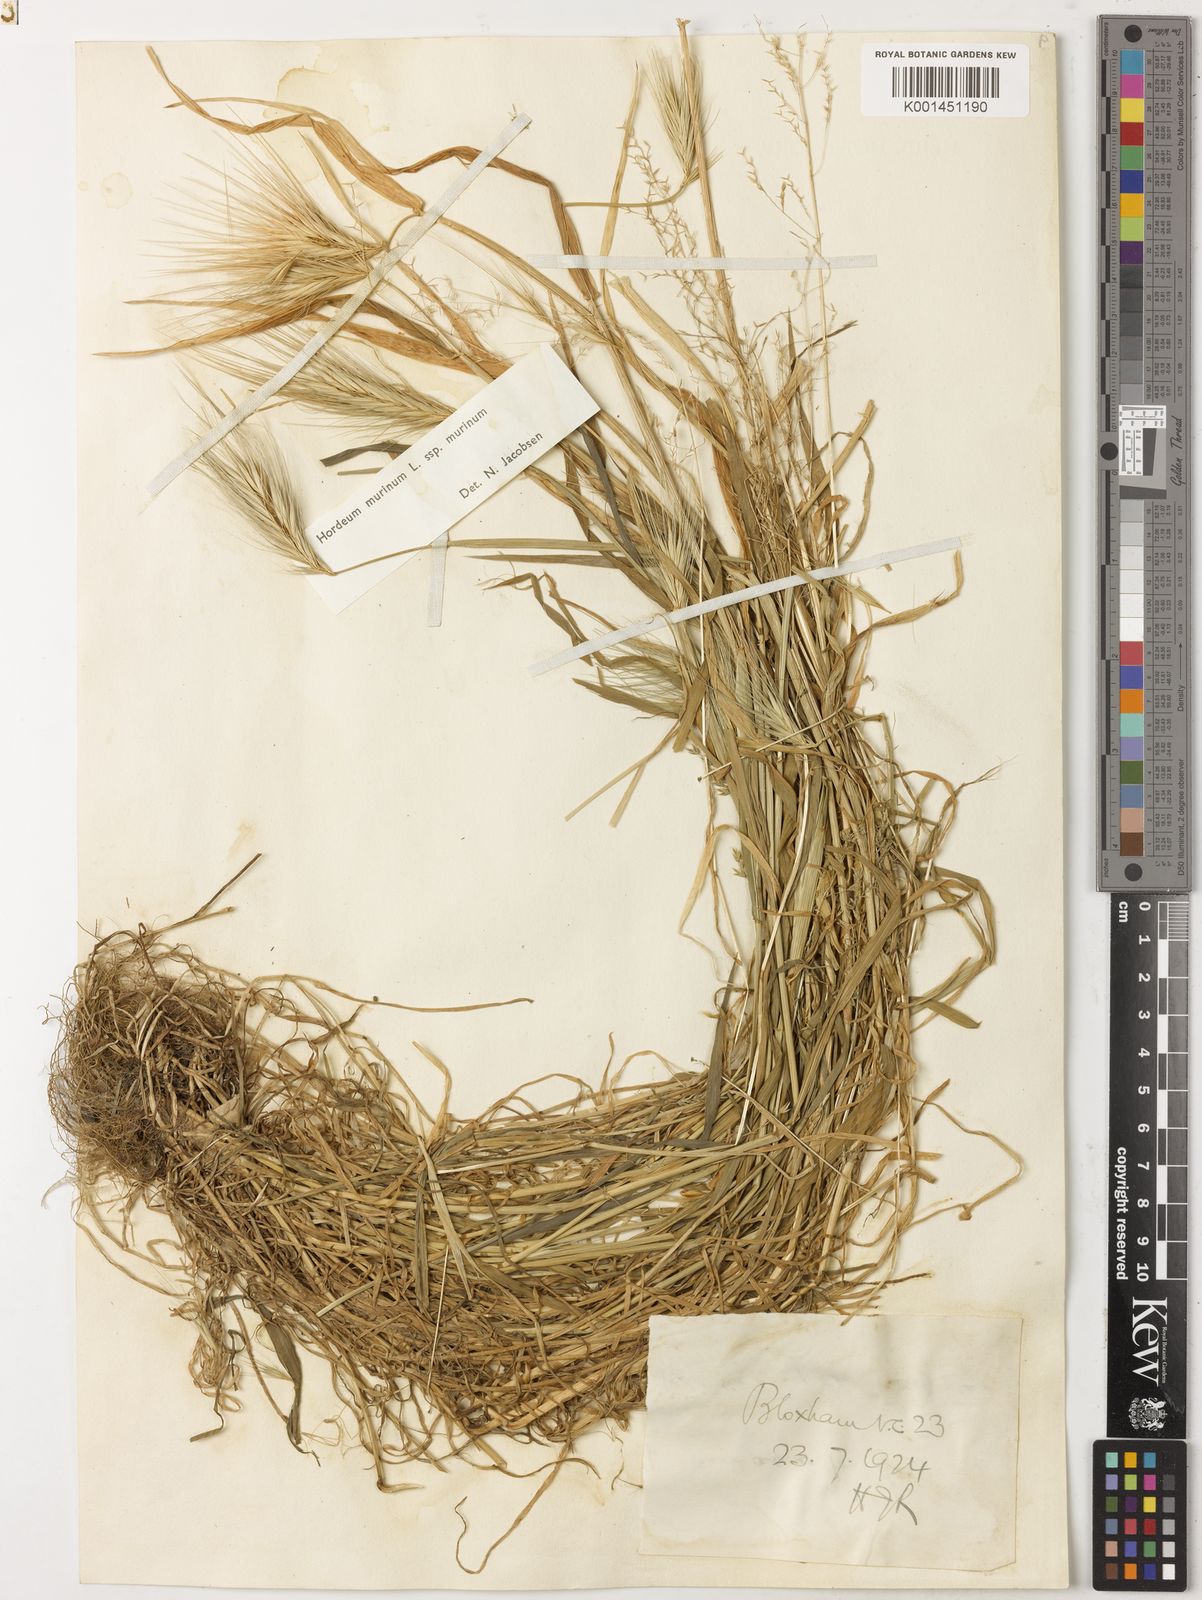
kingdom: Plantae
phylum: Tracheophyta
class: Liliopsida
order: Poales
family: Poaceae
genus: Hordeum
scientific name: Hordeum murinum
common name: Wall barley
